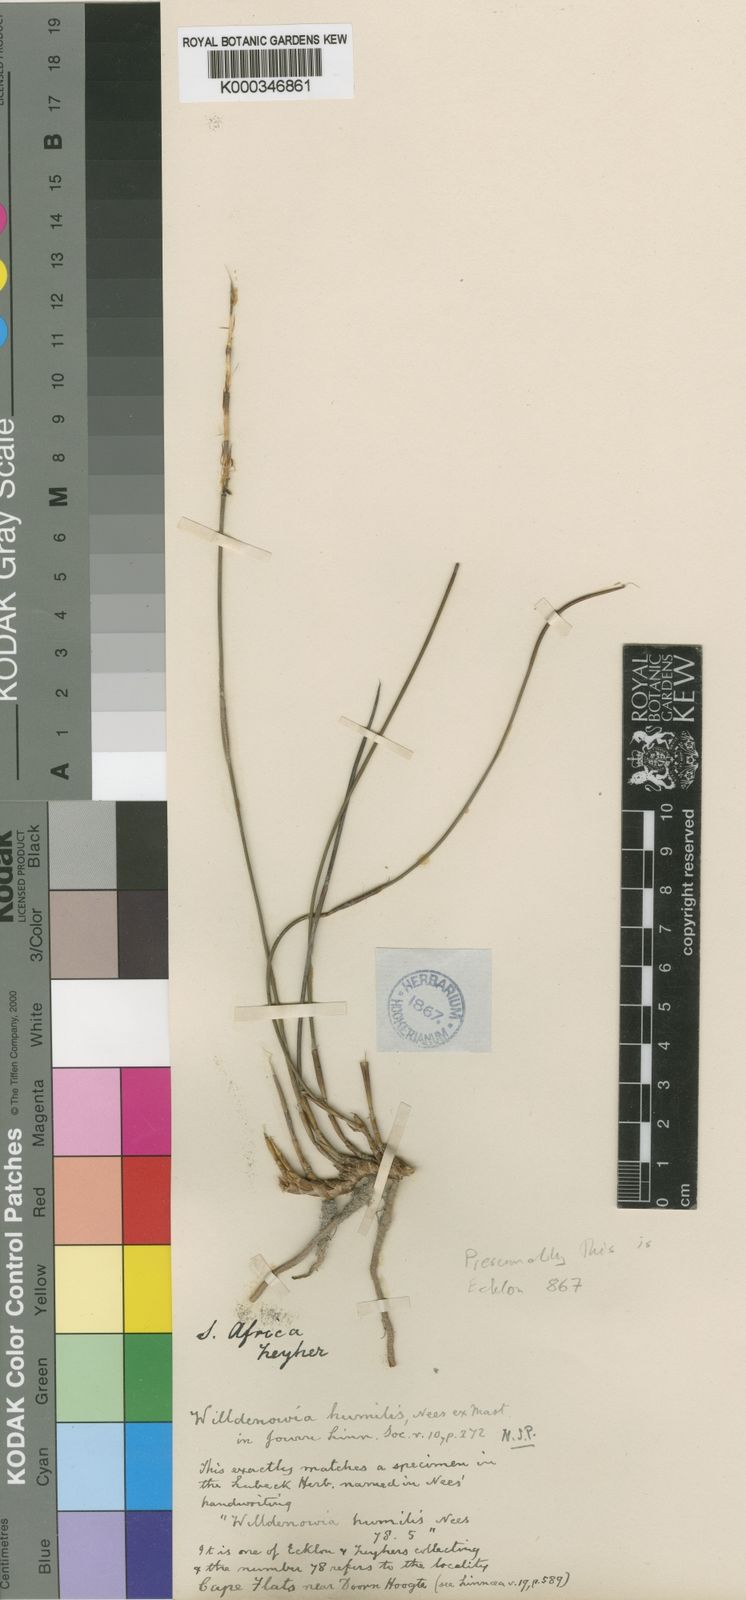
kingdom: Plantae
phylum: Tracheophyta
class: Liliopsida
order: Poales
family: Restionaceae
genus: Willdenowia
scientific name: Willdenowia humilis
